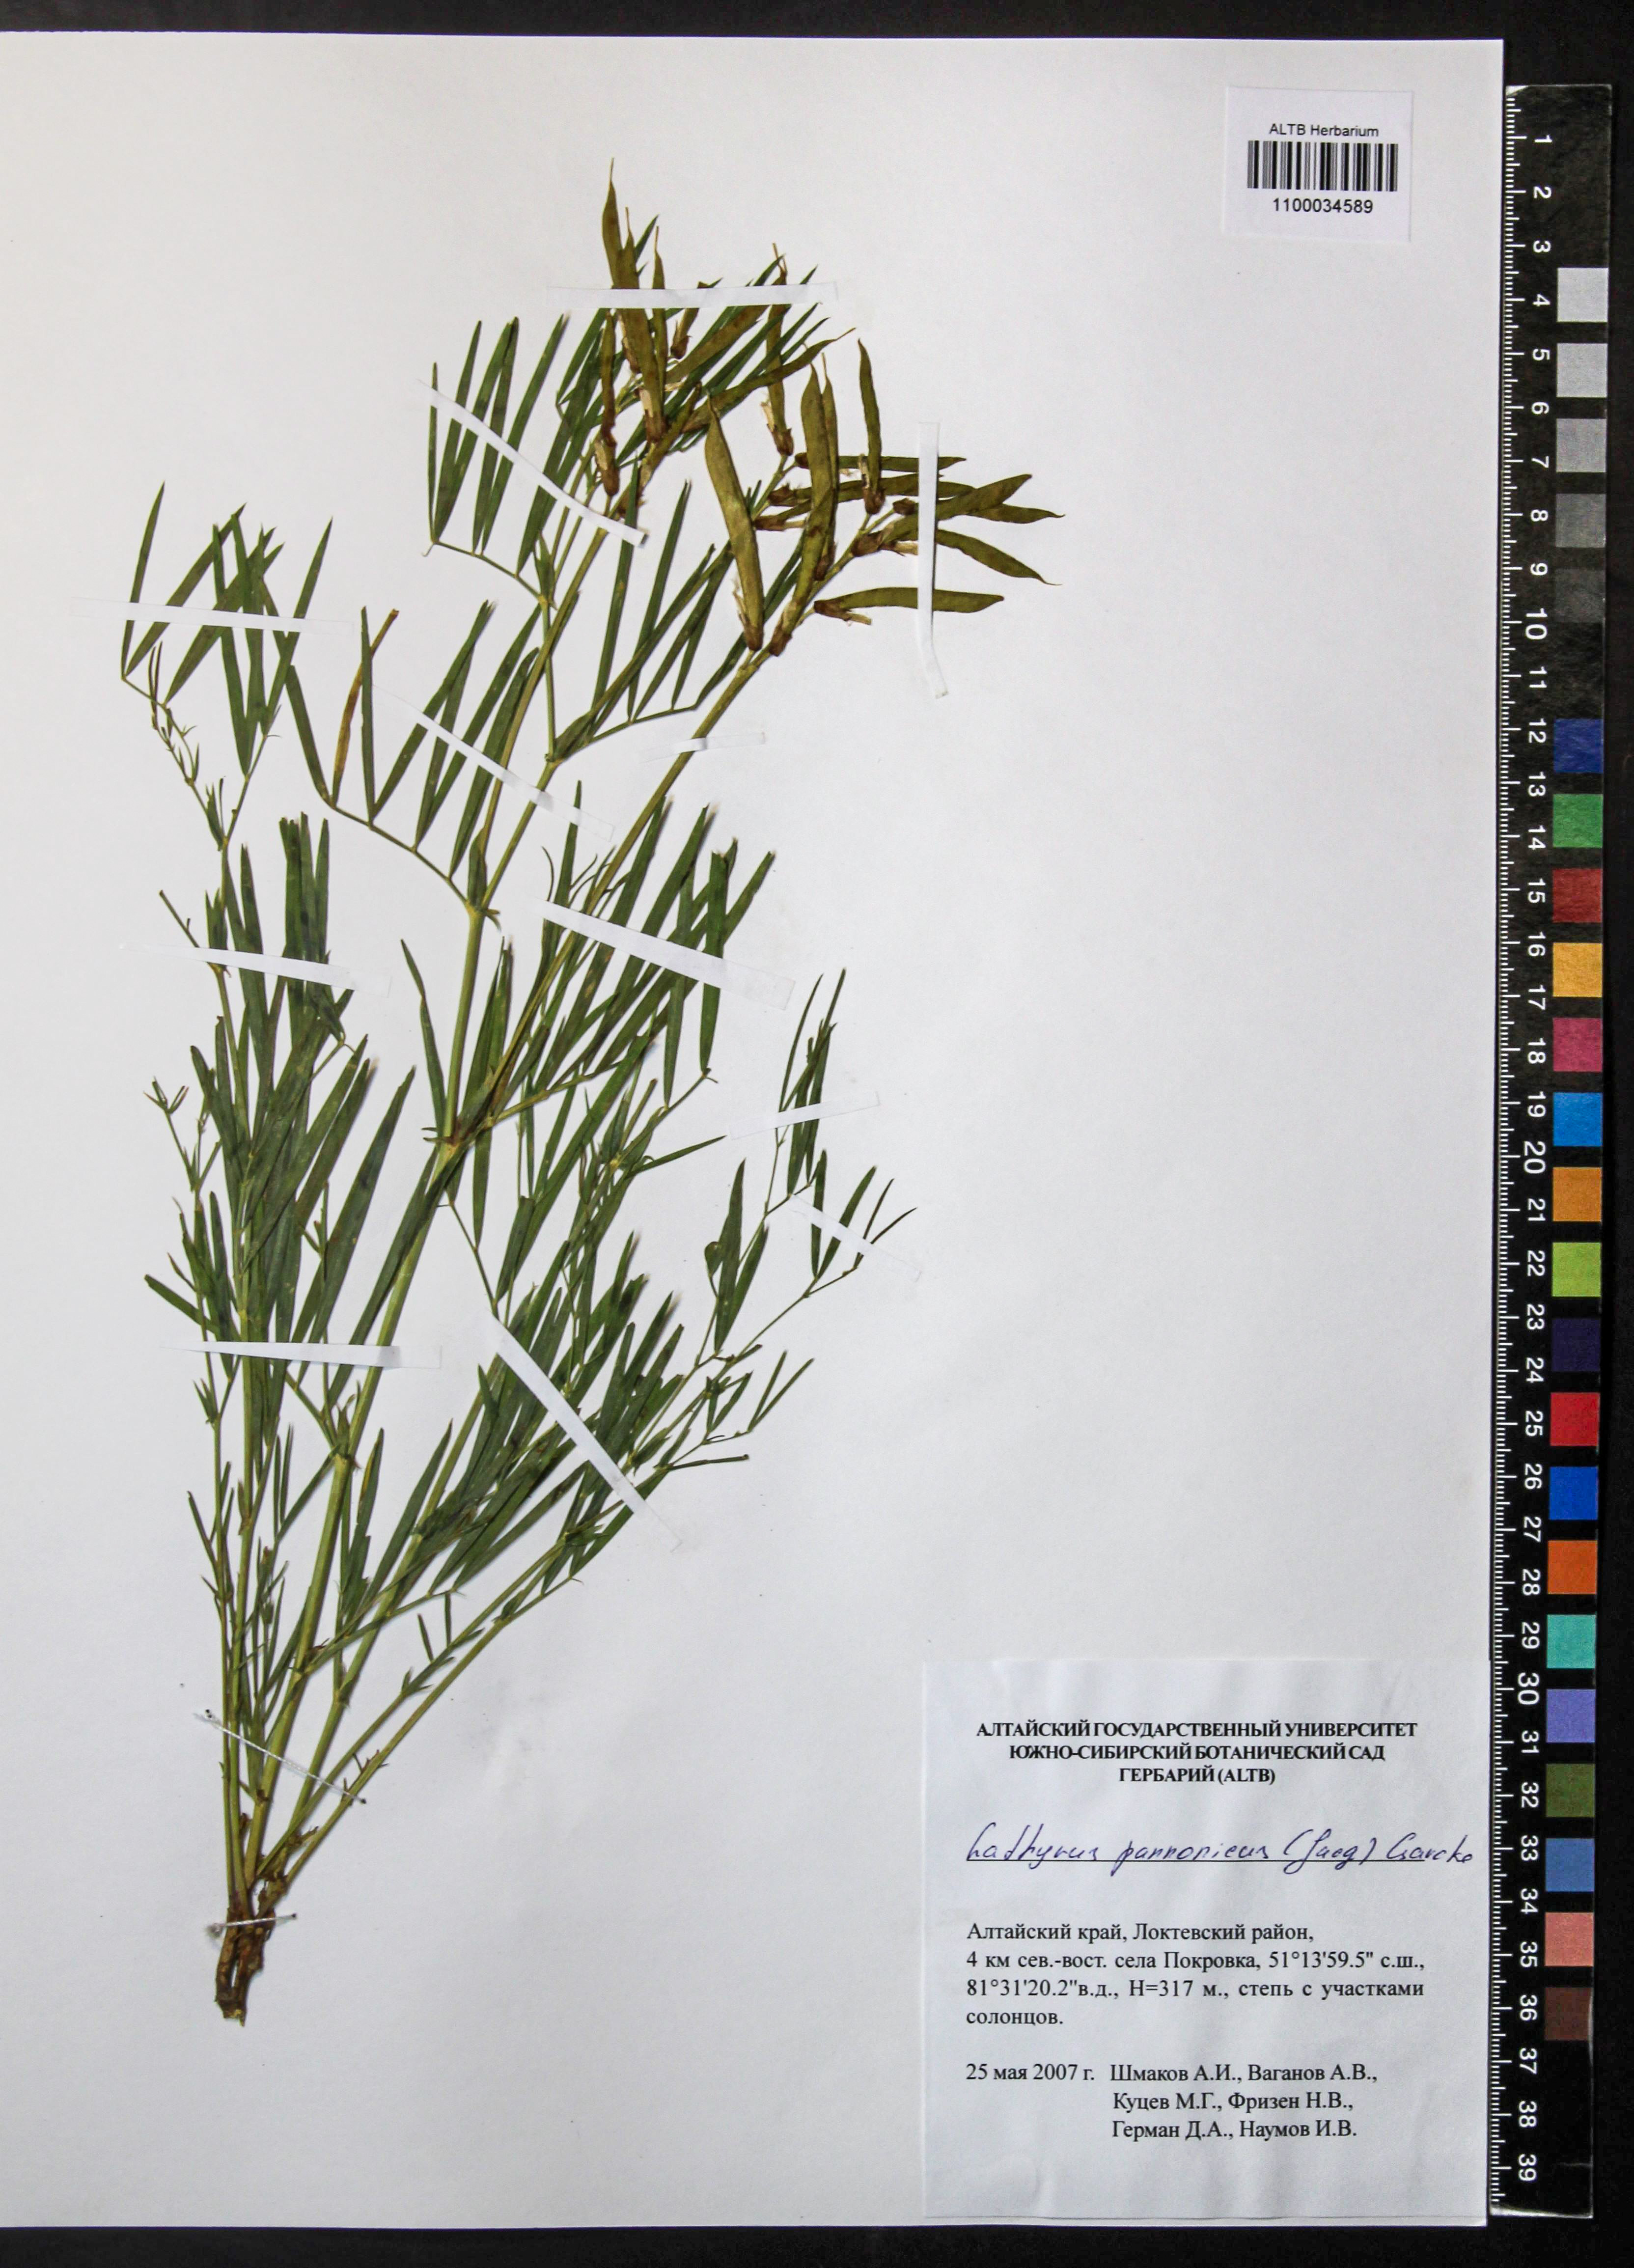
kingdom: Plantae
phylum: Tracheophyta
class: Magnoliopsida
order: Fabales
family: Fabaceae
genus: Lathyrus
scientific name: Lathyrus pannonicus
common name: Pea
